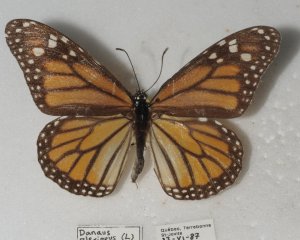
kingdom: Animalia
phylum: Arthropoda
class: Insecta
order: Lepidoptera
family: Nymphalidae
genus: Danaus
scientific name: Danaus plexippus
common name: Monarch
